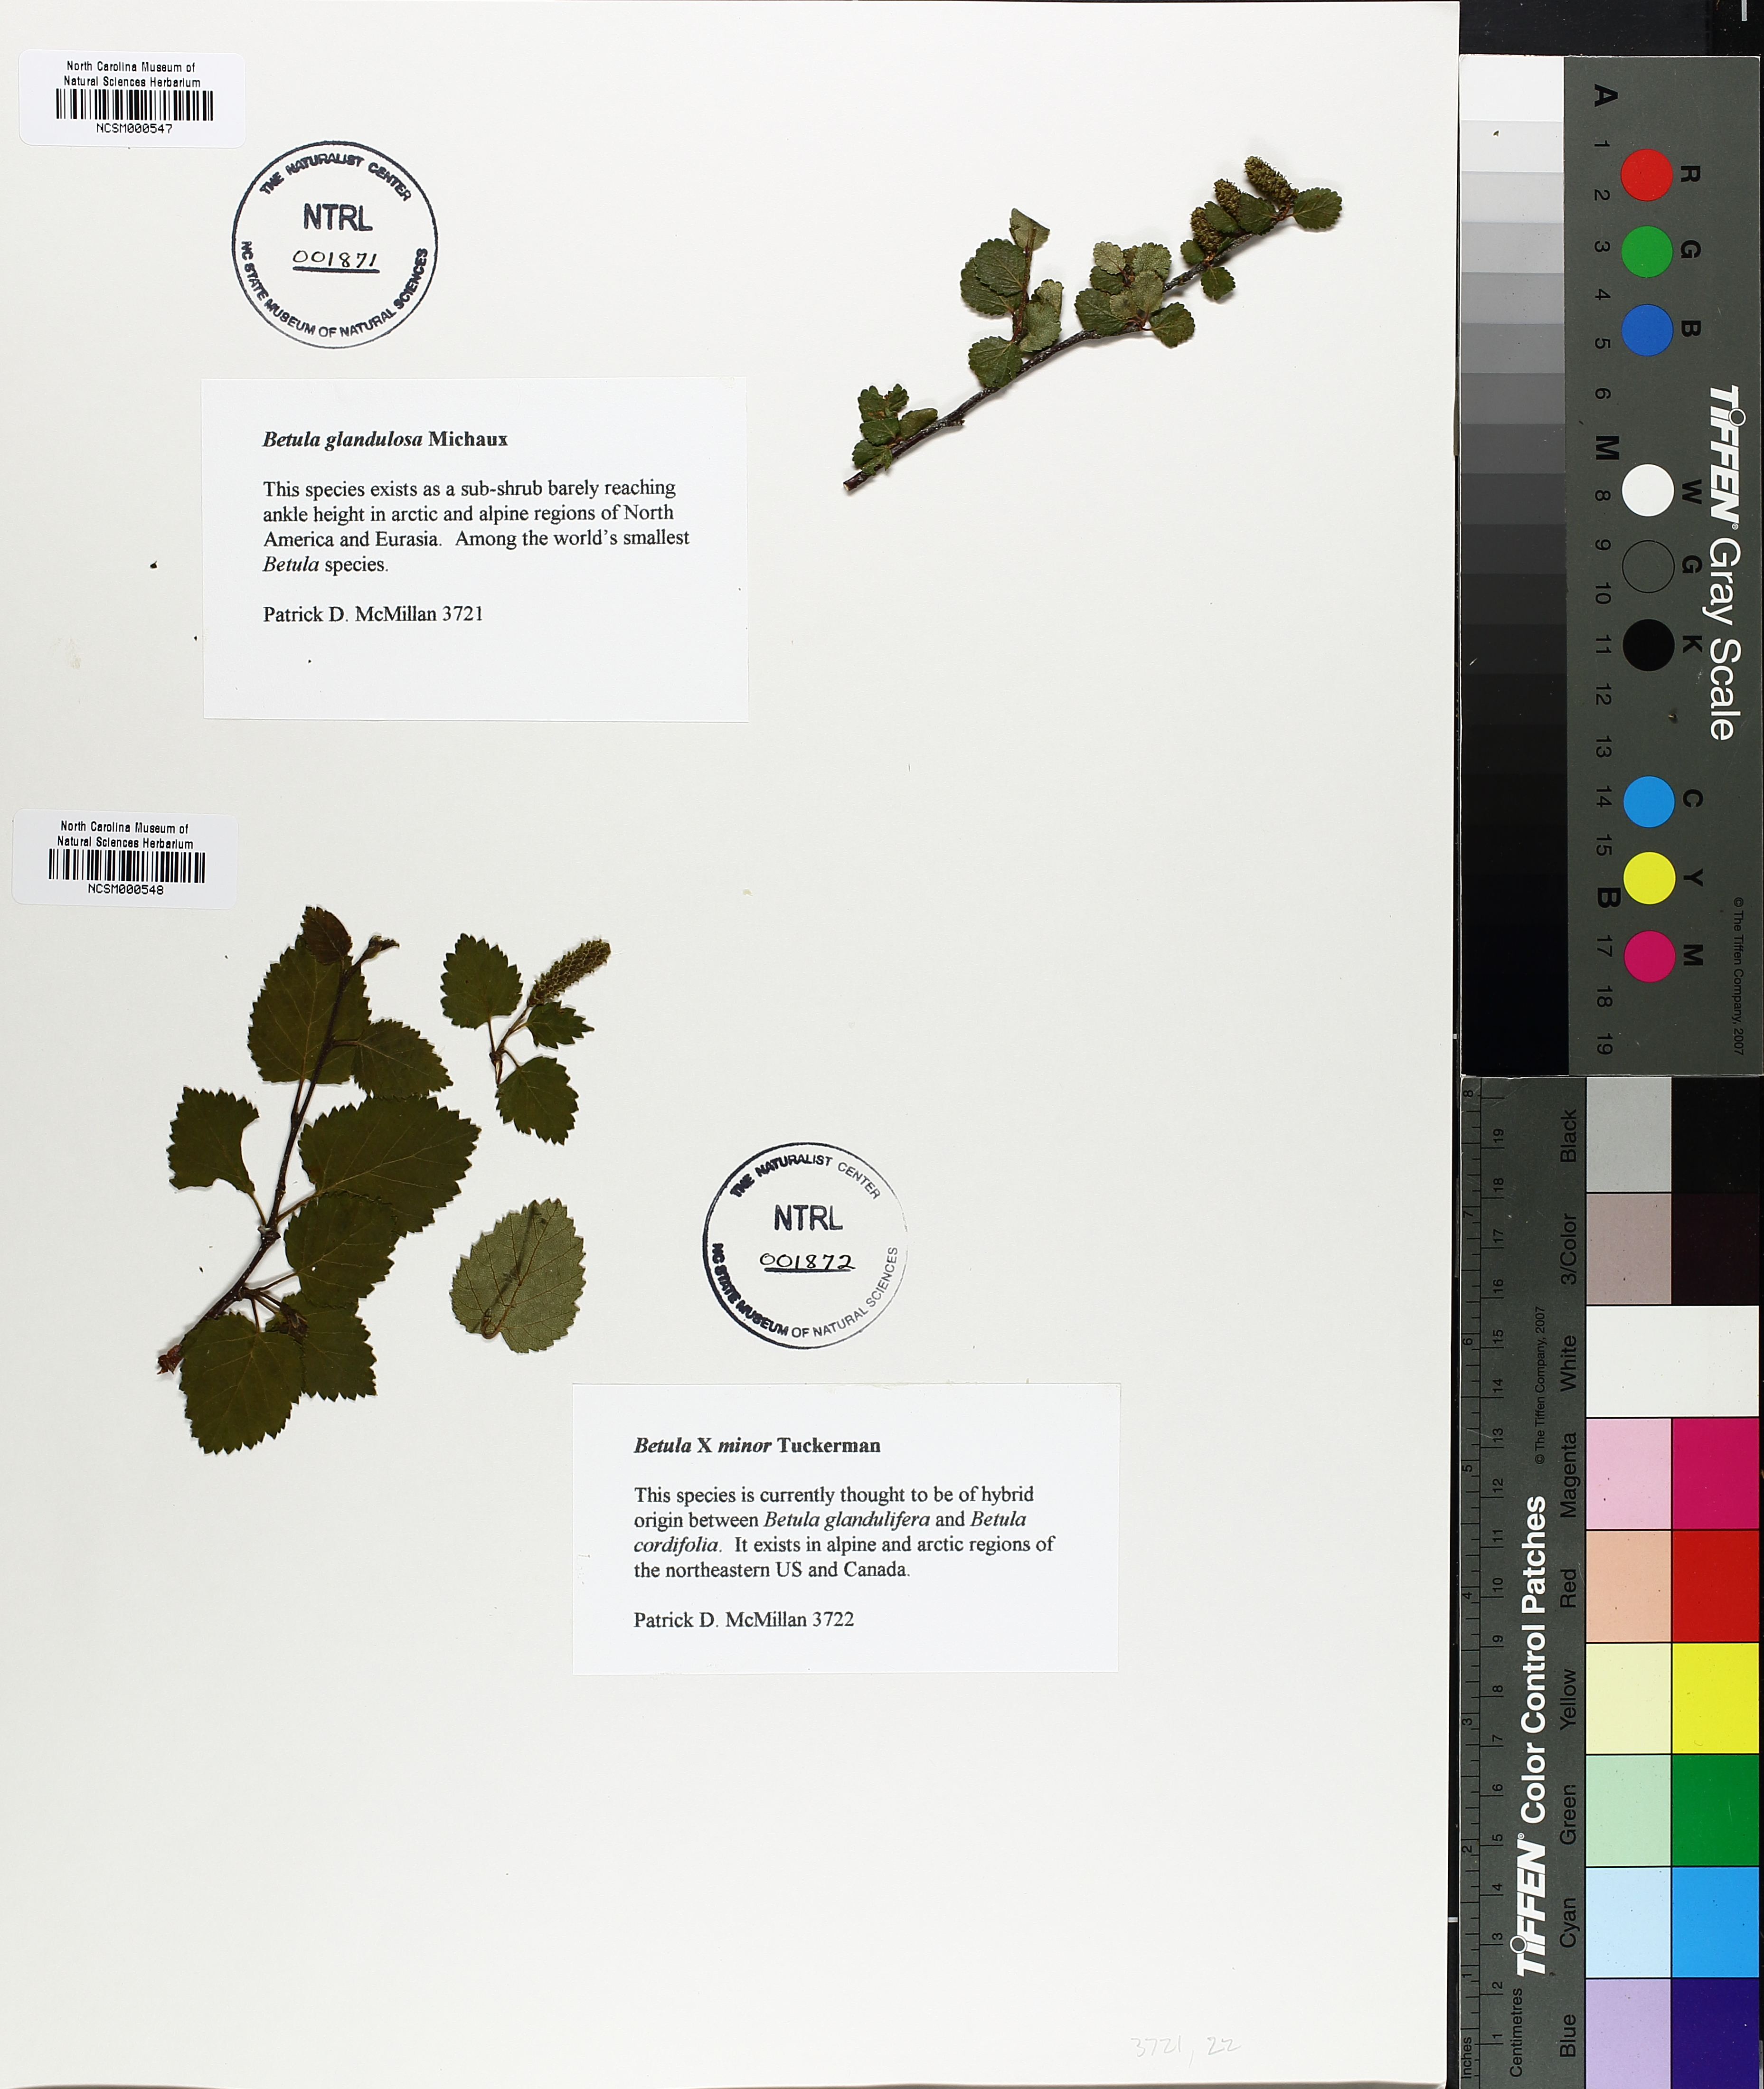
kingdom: Plantae
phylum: Tracheophyta
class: Magnoliopsida
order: Fagales
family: Betulaceae
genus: Betula
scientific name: Betula glandulosa
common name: Dwarf birch
